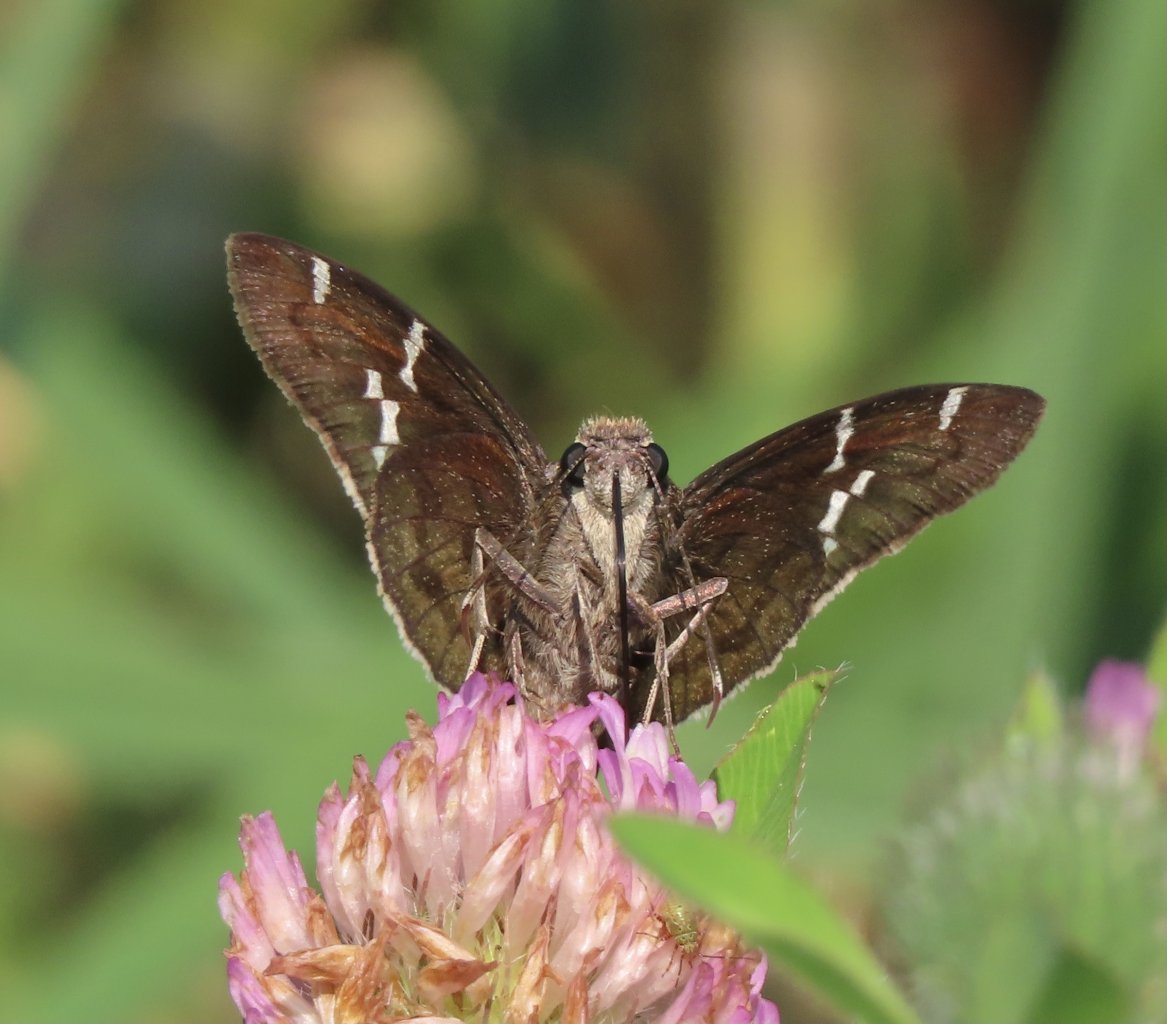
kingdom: Animalia
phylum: Arthropoda
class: Insecta
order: Lepidoptera
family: Hesperiidae
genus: Autochton
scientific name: Autochton
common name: Southern Cloudywing
